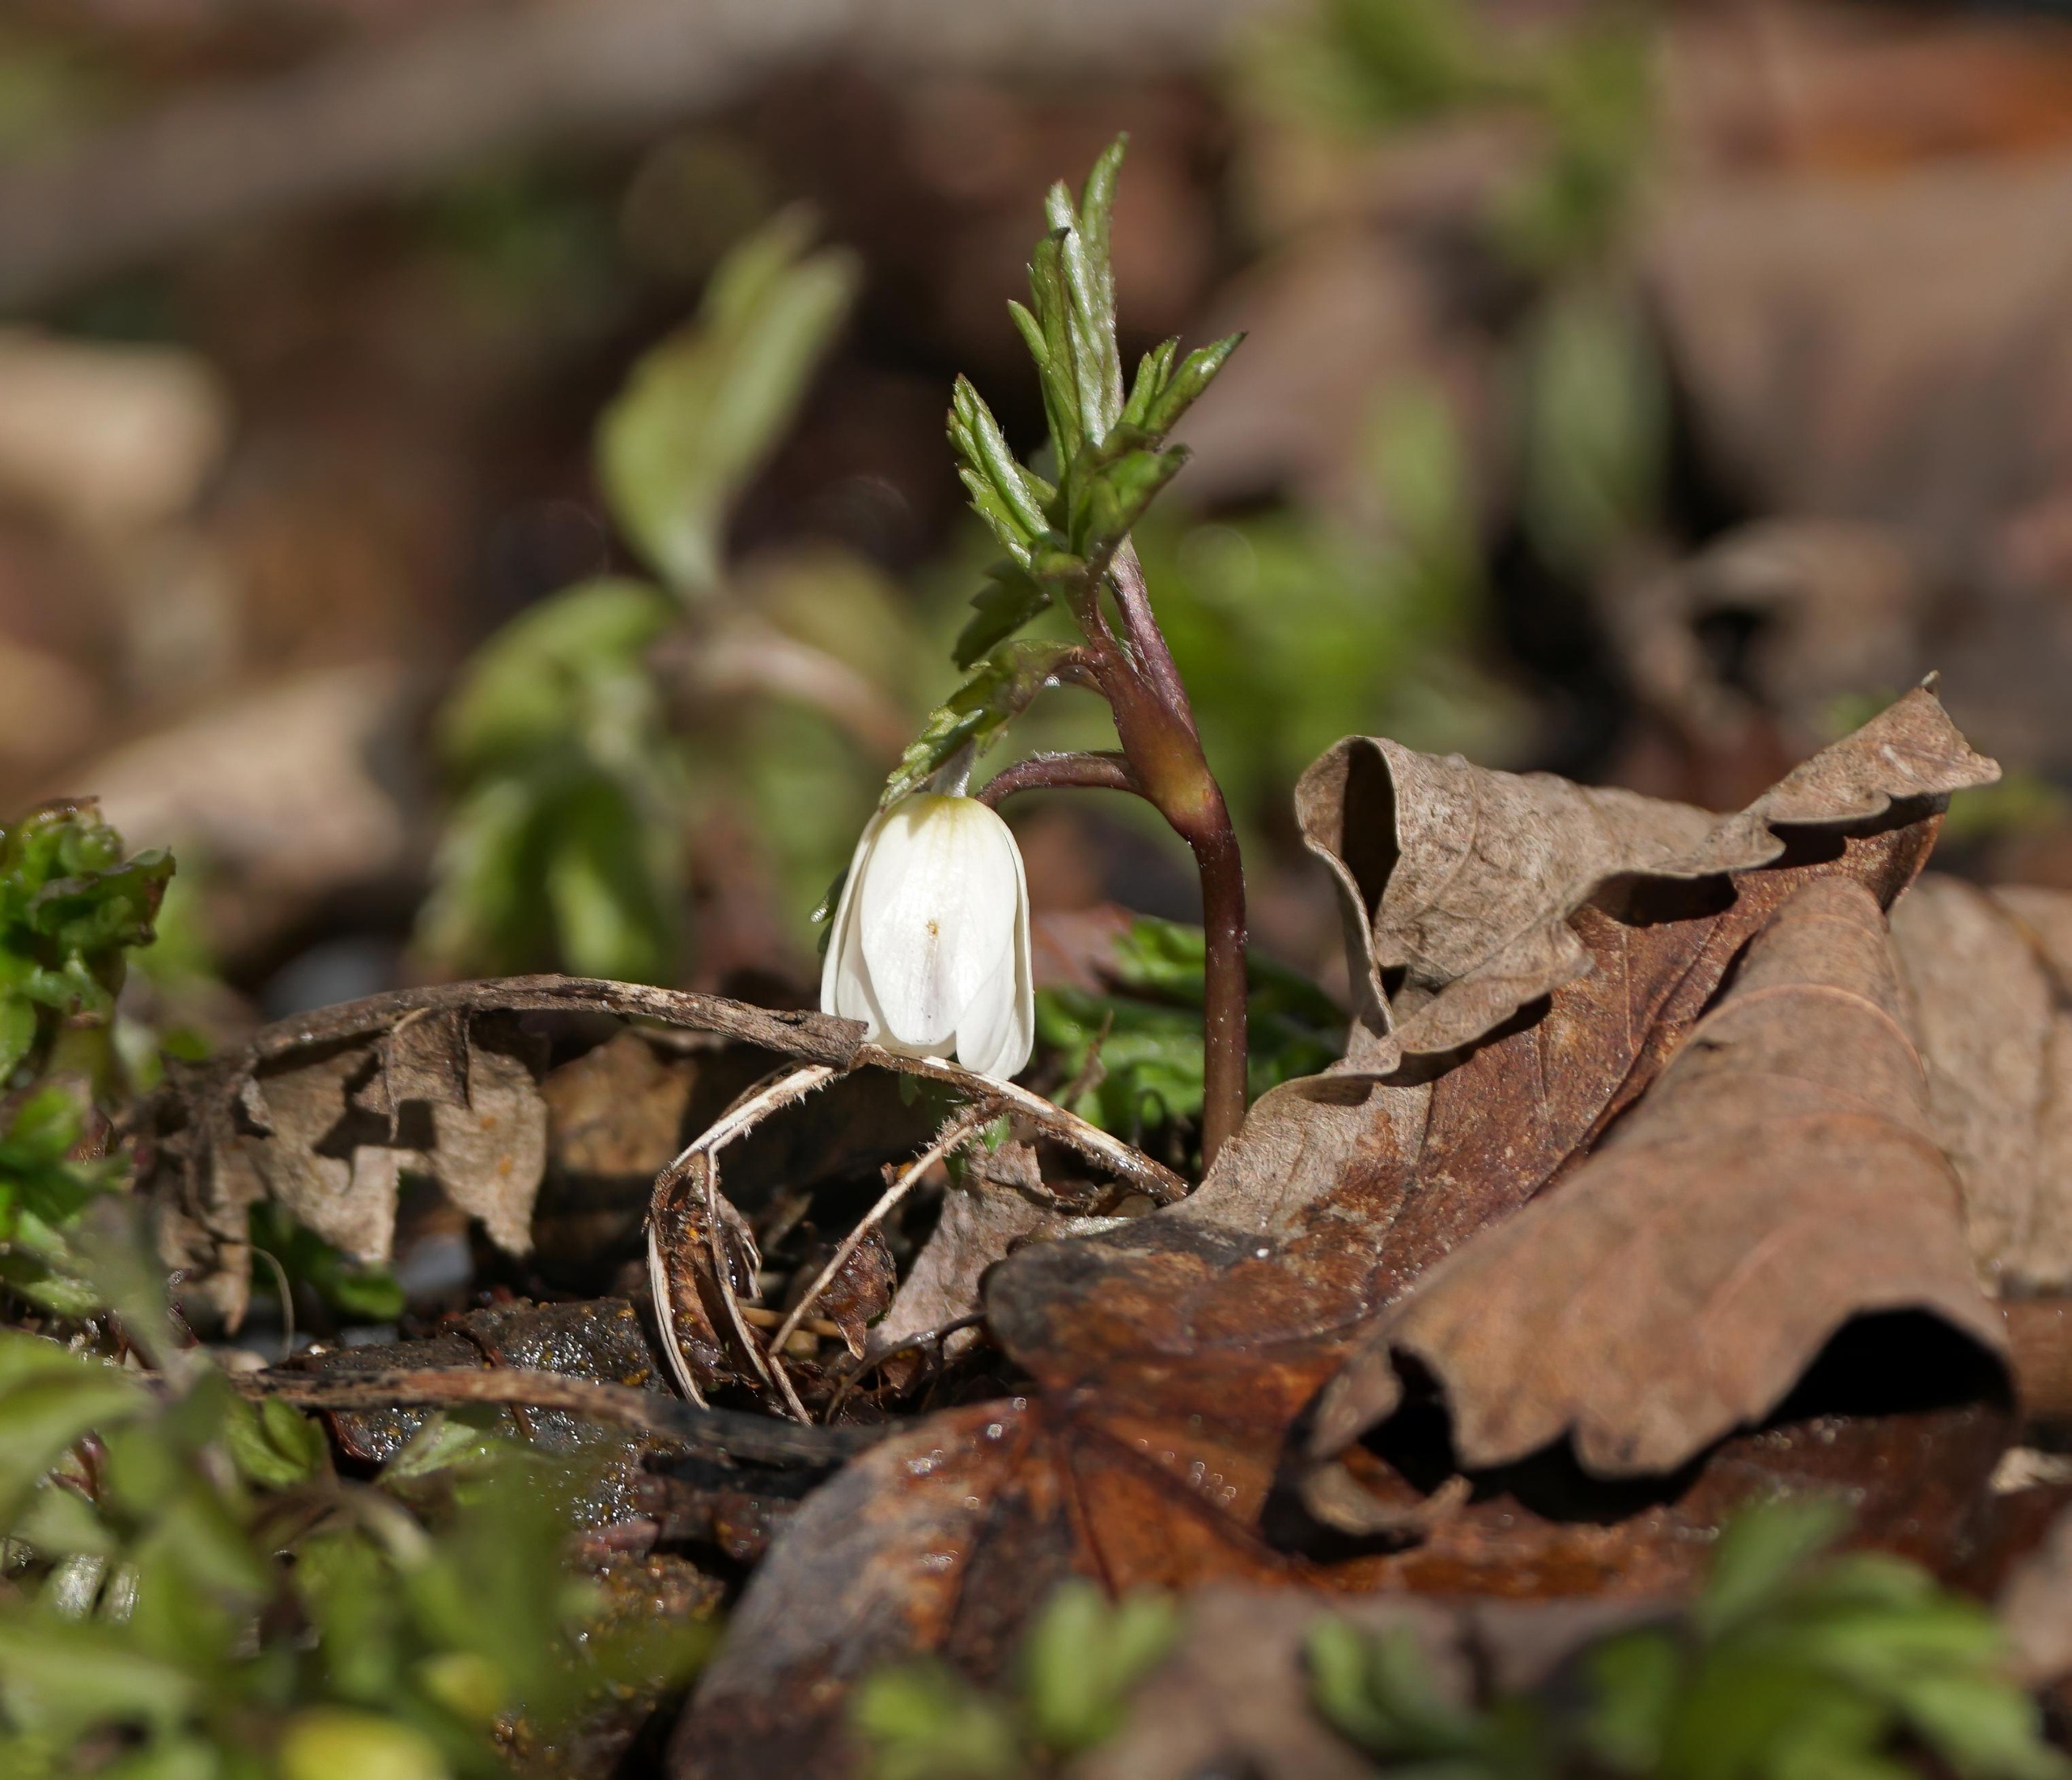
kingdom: Plantae
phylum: Tracheophyta
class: Magnoliopsida
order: Ranunculales
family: Ranunculaceae
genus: Anemone
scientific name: Anemone nemorosa
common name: Hvid anemone
